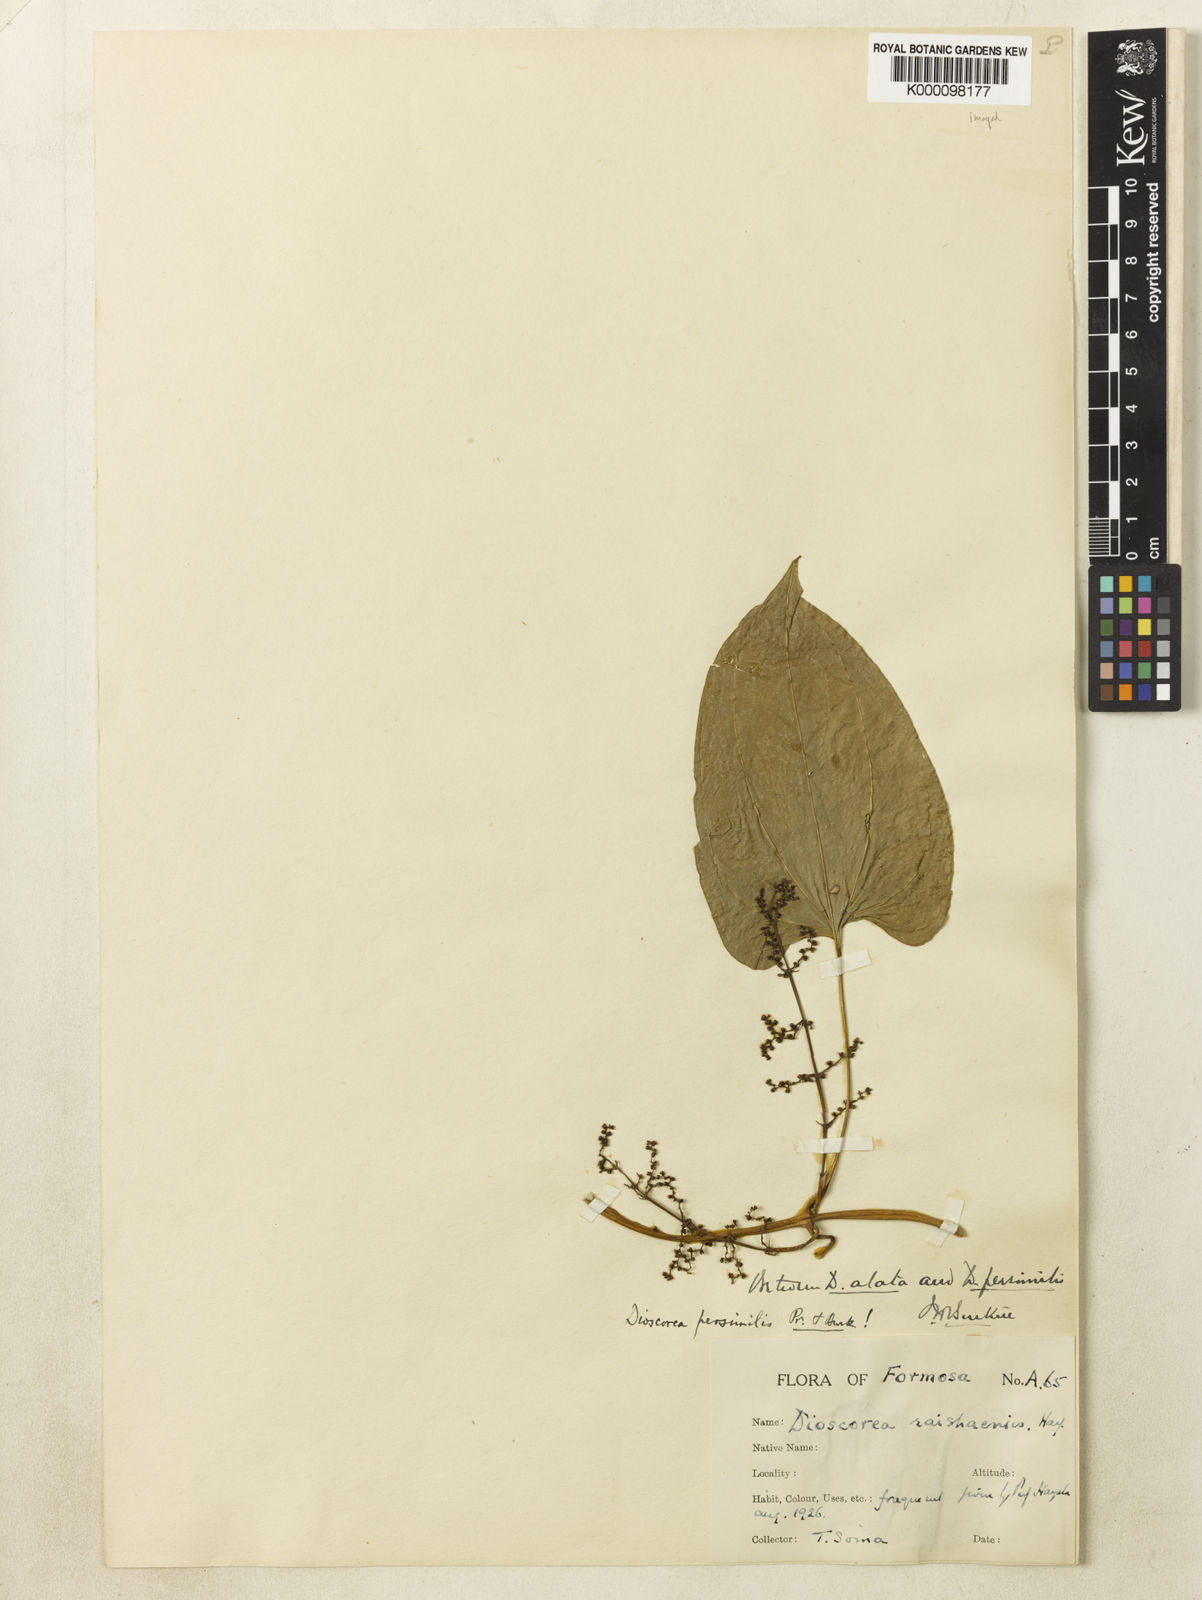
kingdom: Plantae
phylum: Tracheophyta
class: Liliopsida
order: Dioscoreales
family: Dioscoreaceae
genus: Dioscorea
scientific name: Dioscorea hamiltonii
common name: Mountain yam
